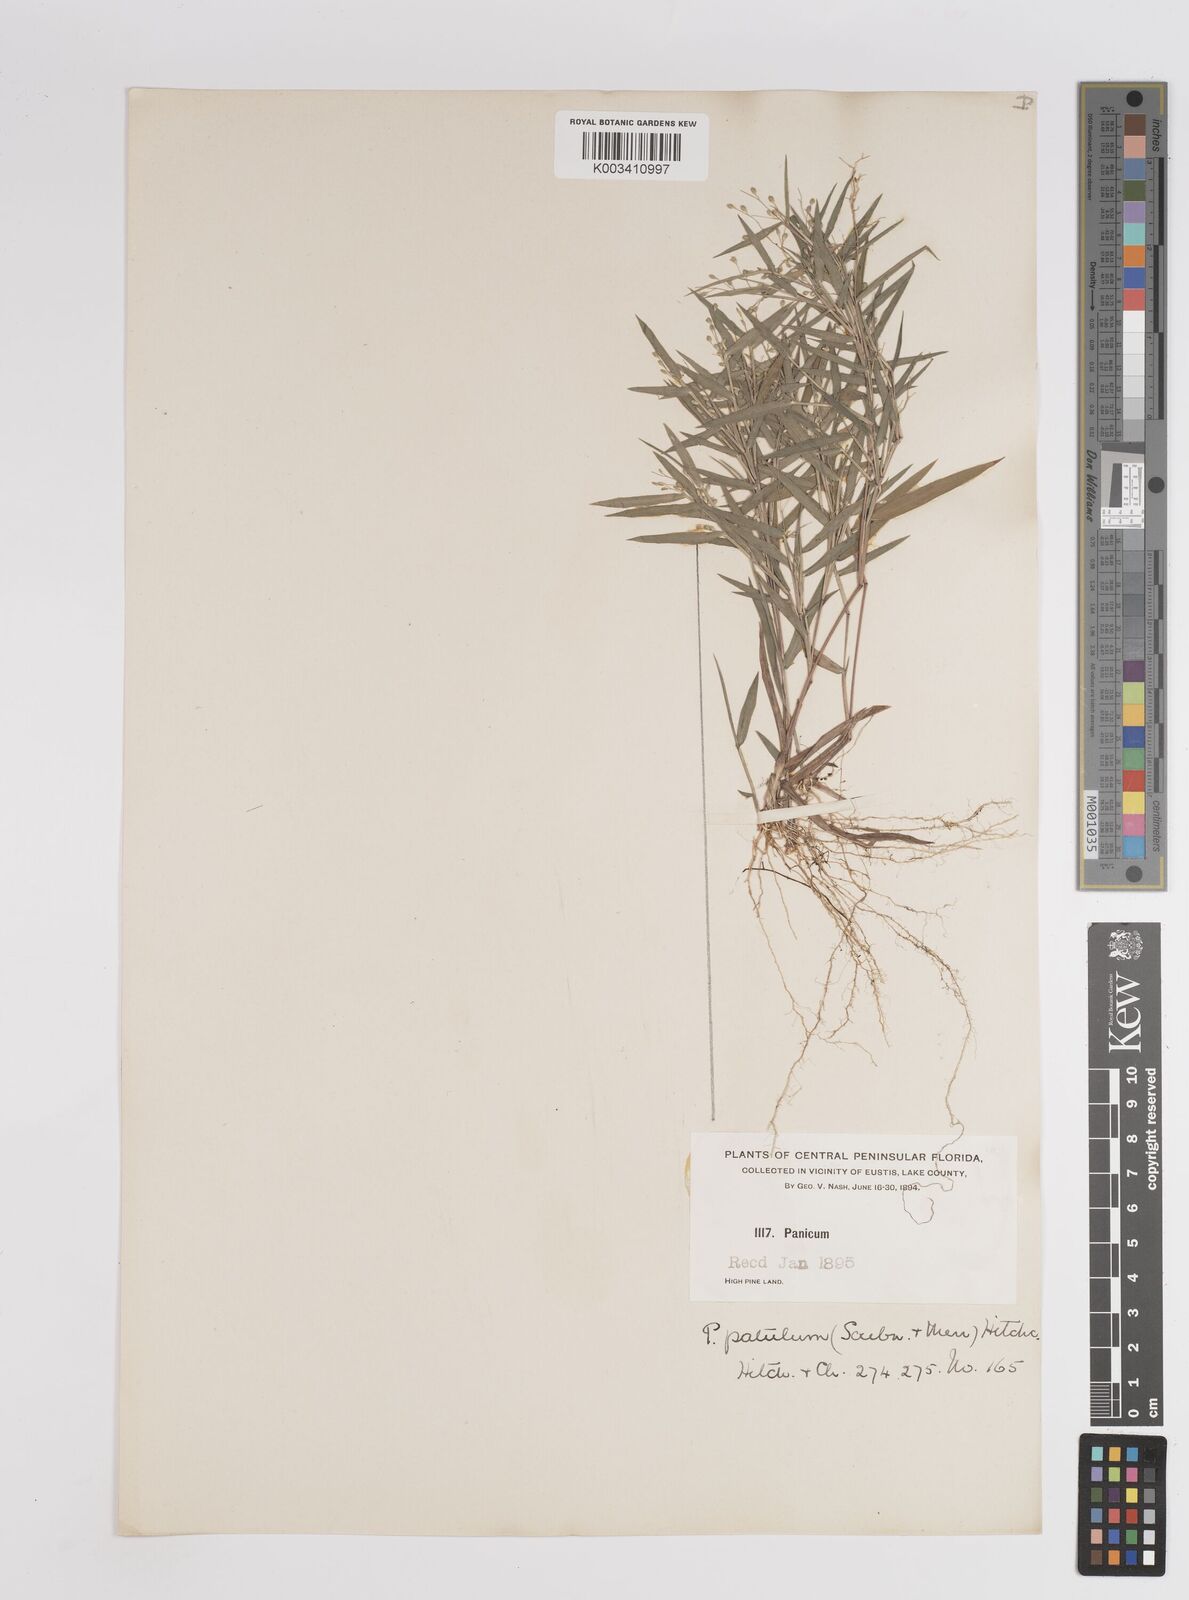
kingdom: Plantae
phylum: Tracheophyta
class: Liliopsida
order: Poales
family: Poaceae
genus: Dichanthelium
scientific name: Dichanthelium patulum
